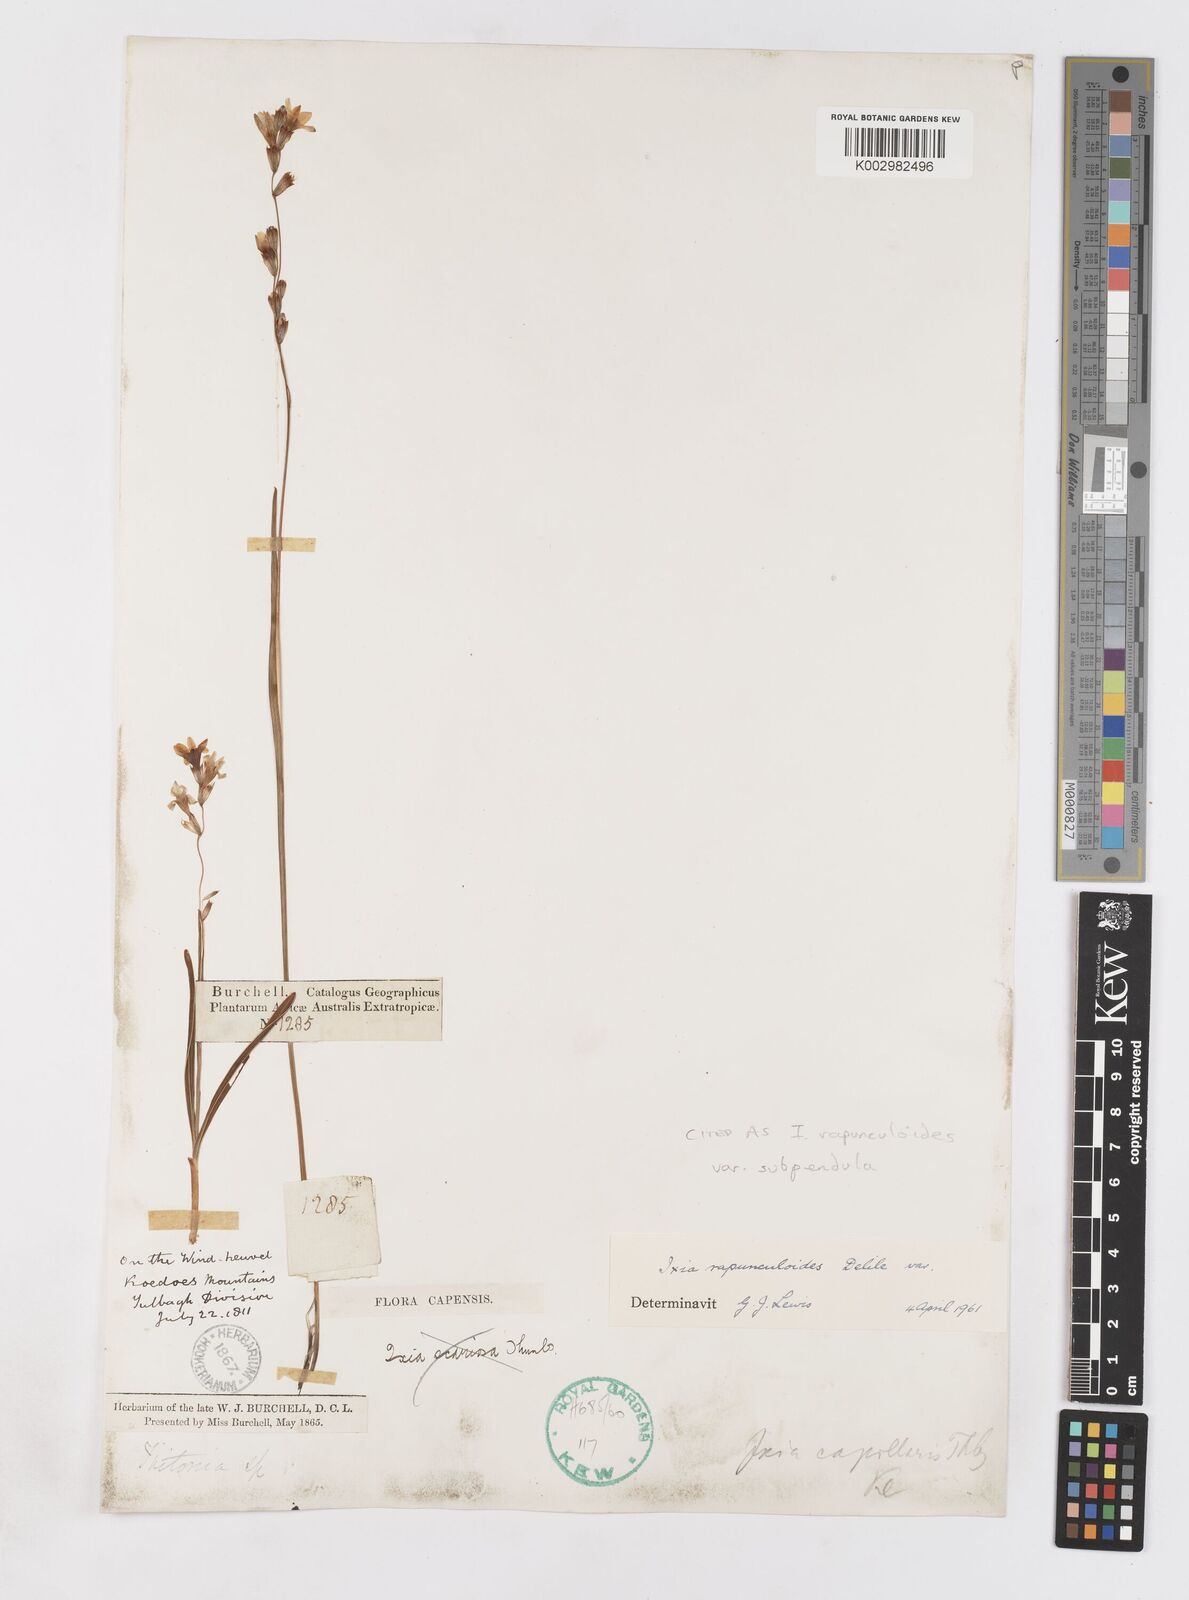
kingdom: Plantae
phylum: Tracheophyta
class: Liliopsida
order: Asparagales
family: Iridaceae
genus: Ixia
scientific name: Ixia rapunculoides
